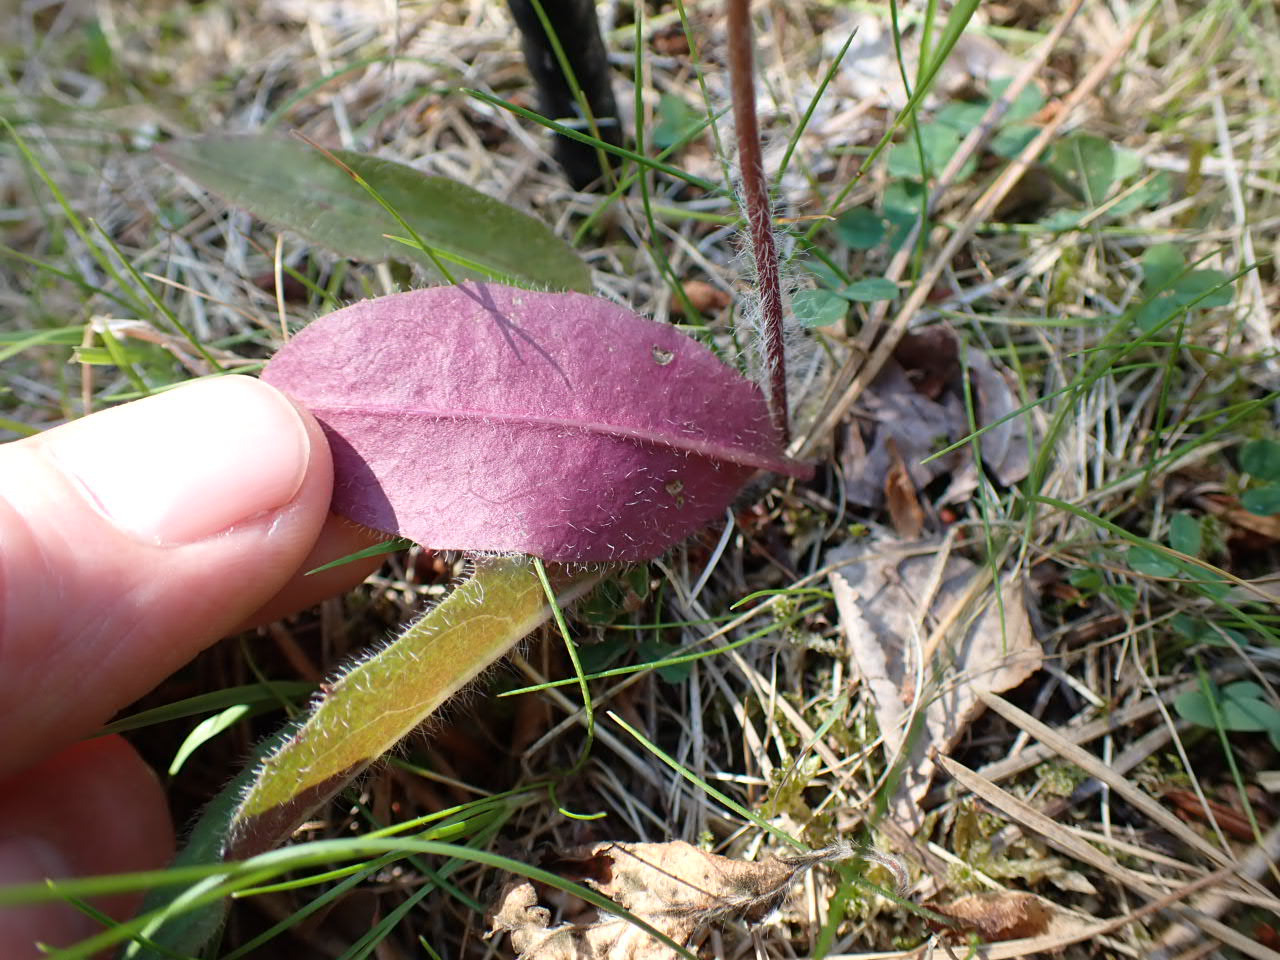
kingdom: Plantae
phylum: Tracheophyta
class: Magnoliopsida
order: Asterales
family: Asteraceae
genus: Hieracium
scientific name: Hieracium vulgatum
